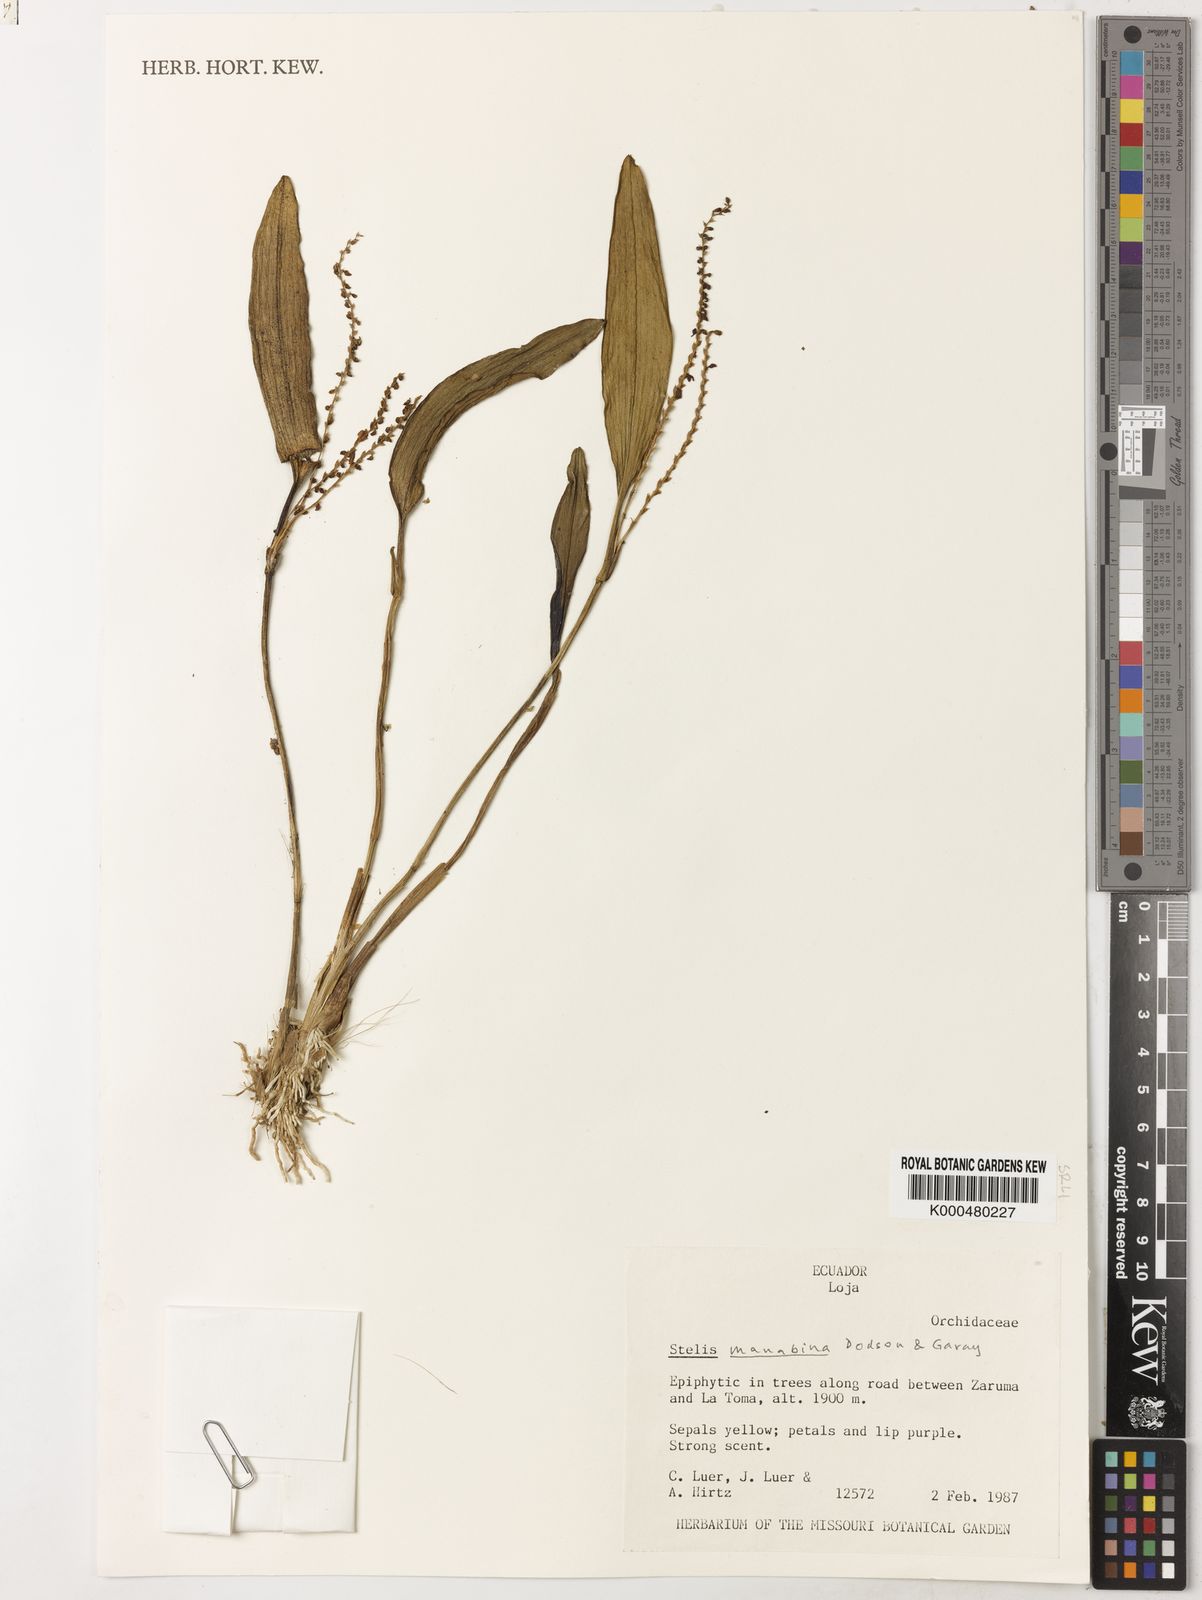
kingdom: Plantae
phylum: Tracheophyta
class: Liliopsida
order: Asparagales
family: Orchidaceae
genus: Stelis
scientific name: Stelis nutans
